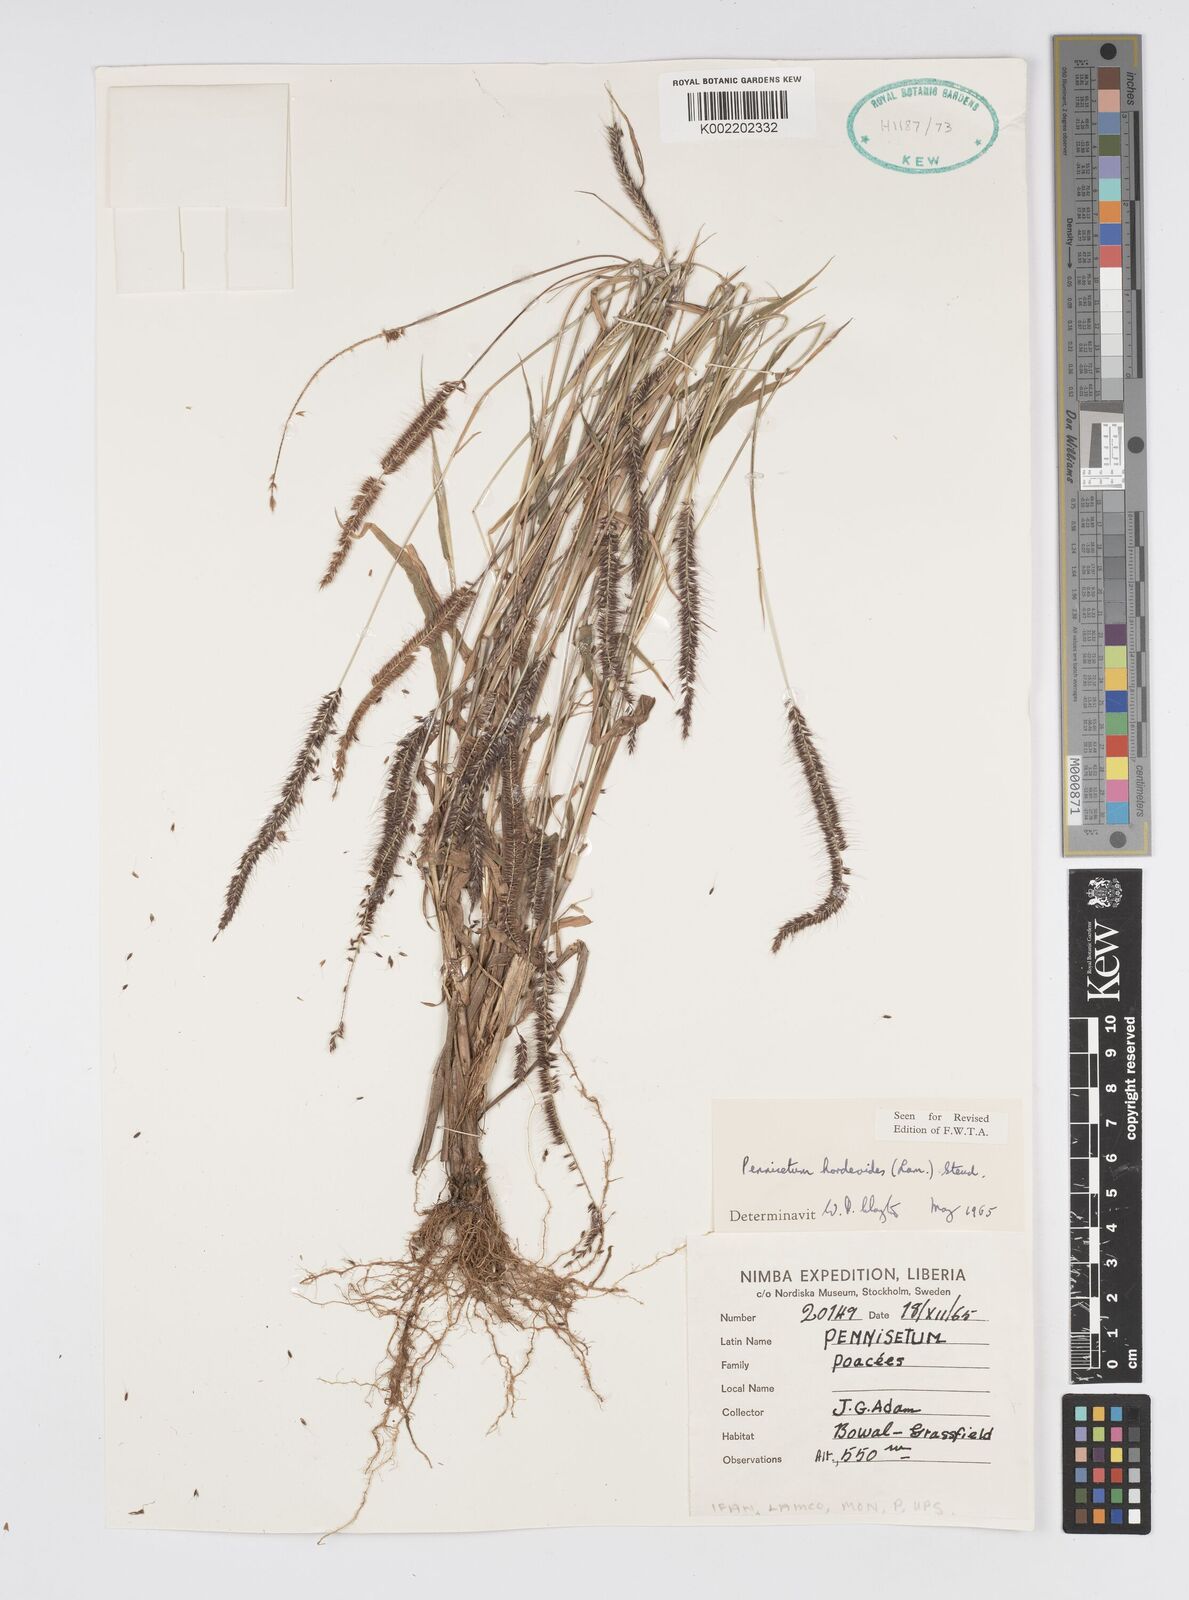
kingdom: Plantae
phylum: Tracheophyta
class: Liliopsida
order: Poales
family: Poaceae
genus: Cenchrus
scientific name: Cenchrus hordeoides
